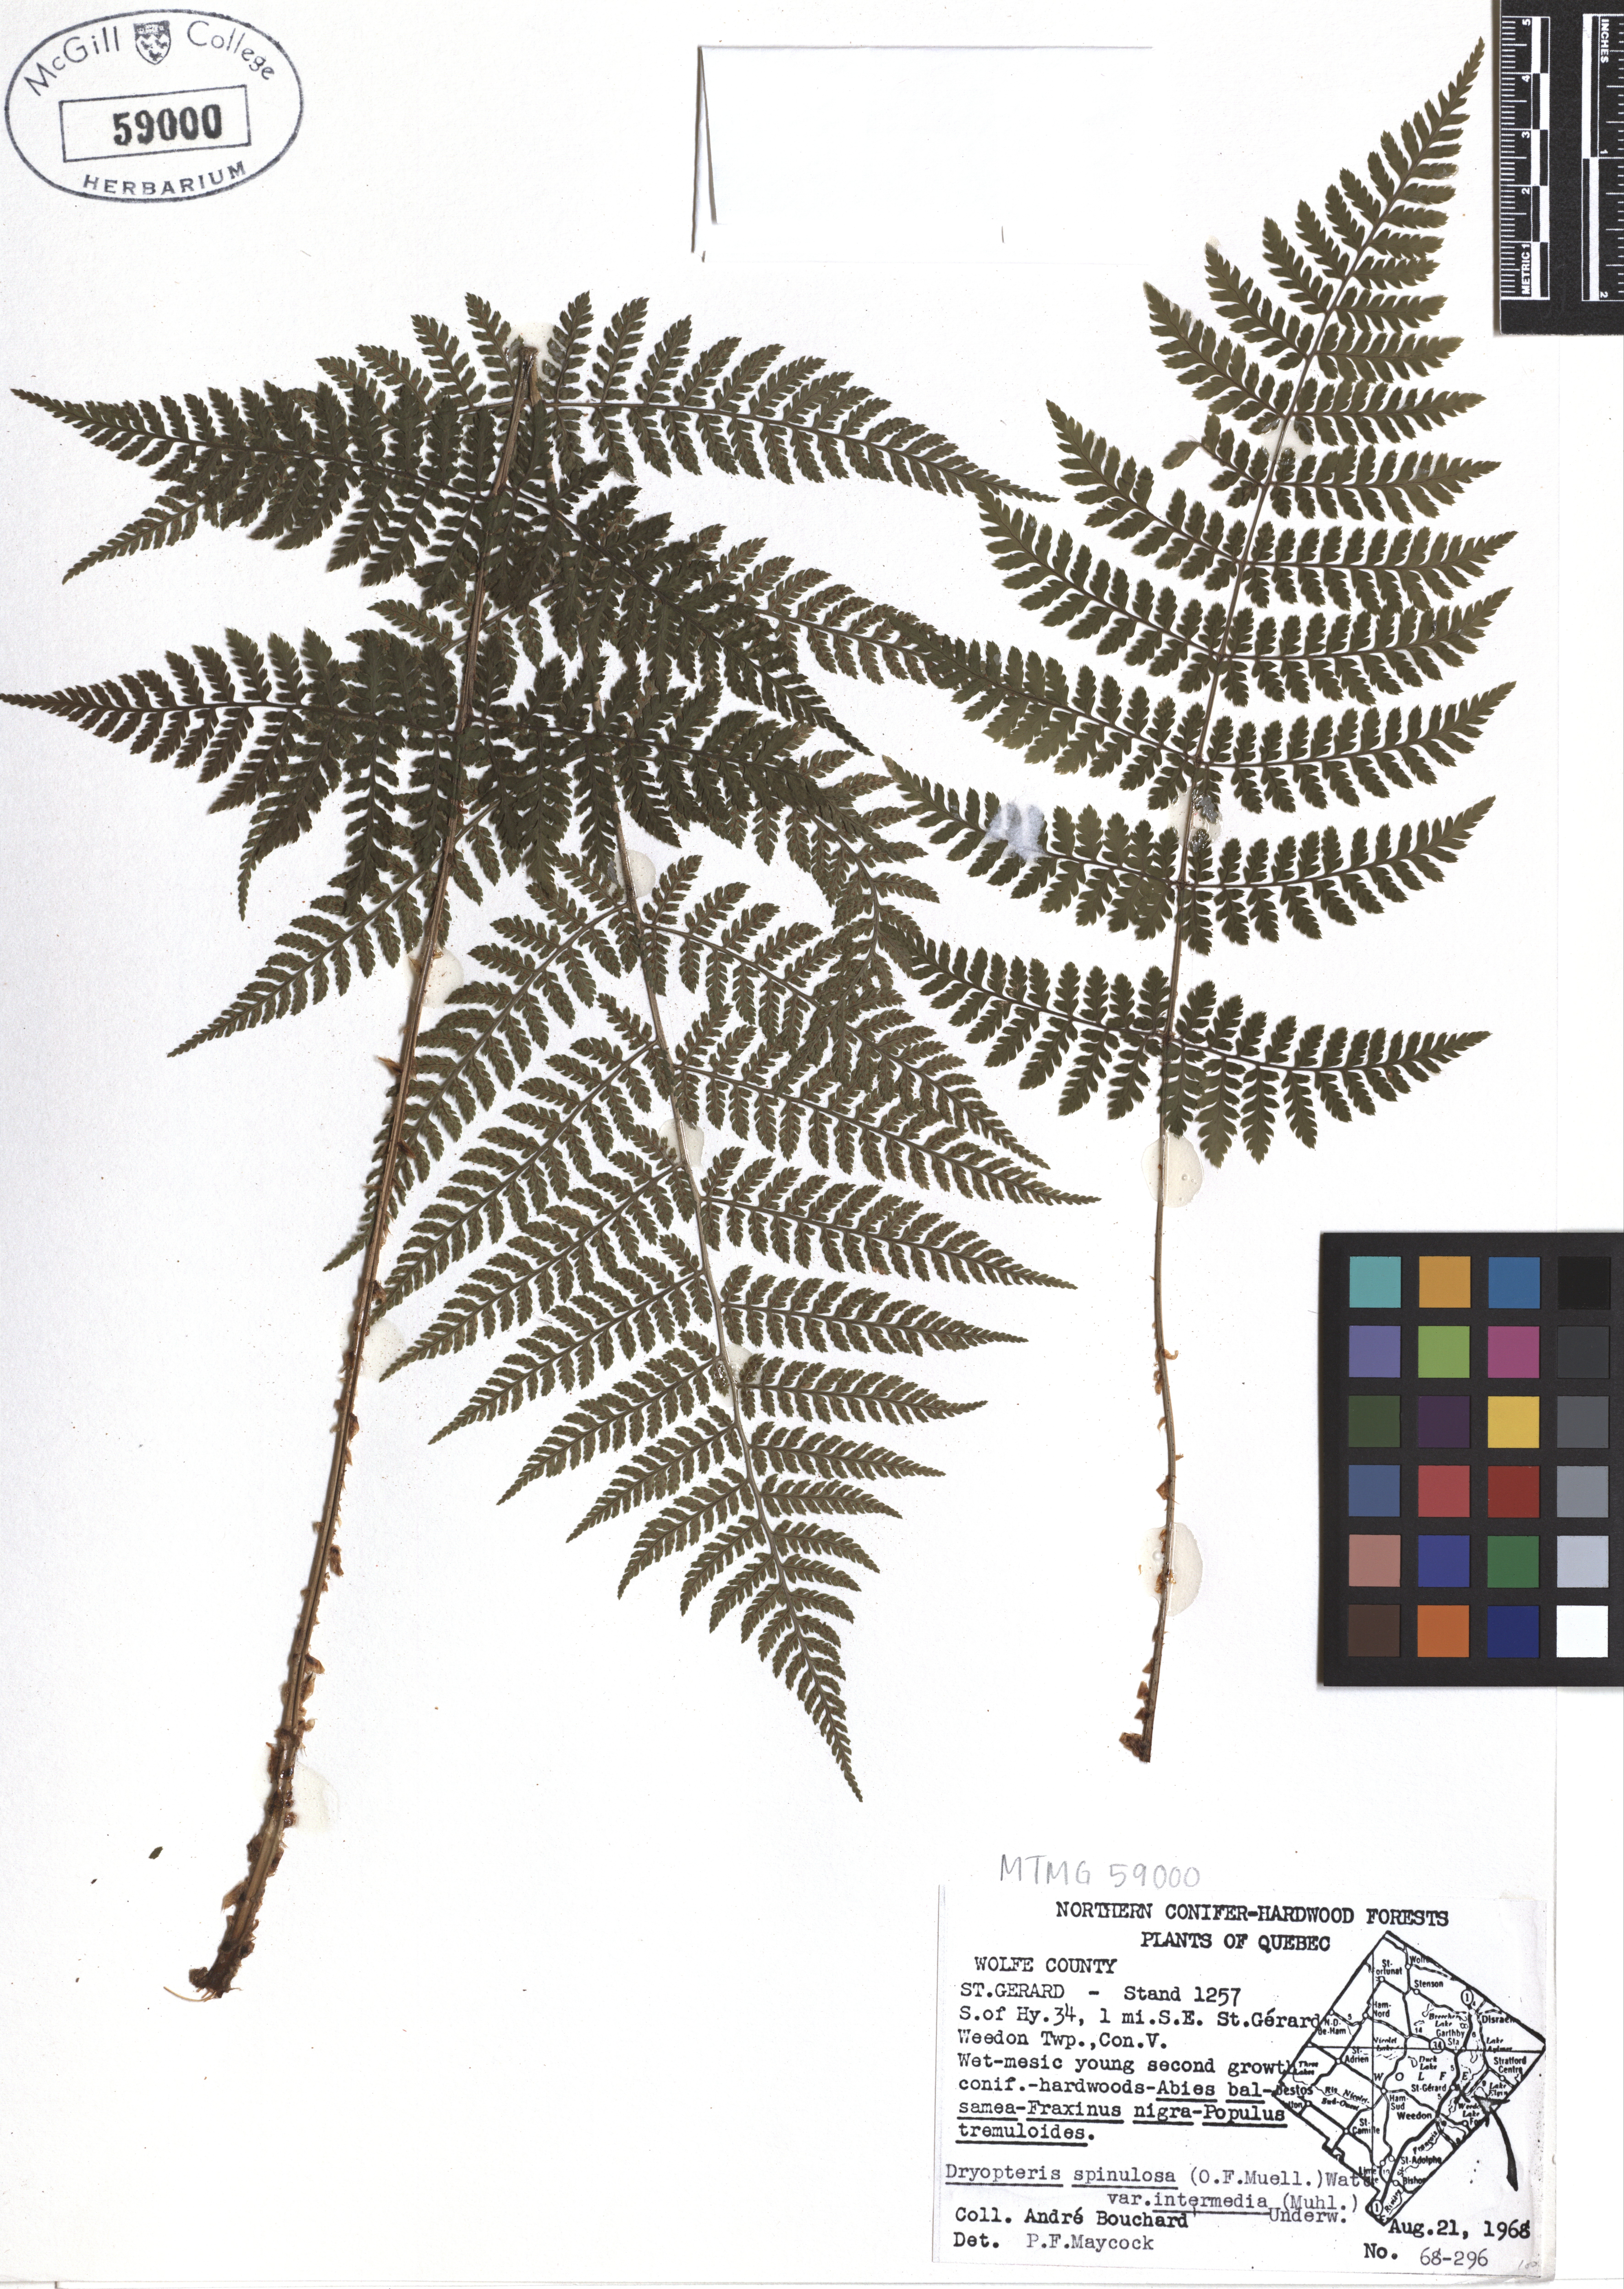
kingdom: Plantae
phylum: Tracheophyta
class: Polypodiopsida
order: Polypodiales
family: Dryopteridaceae
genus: Dryopteris
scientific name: Dryopteris intermedia
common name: Evergreen wood fern
